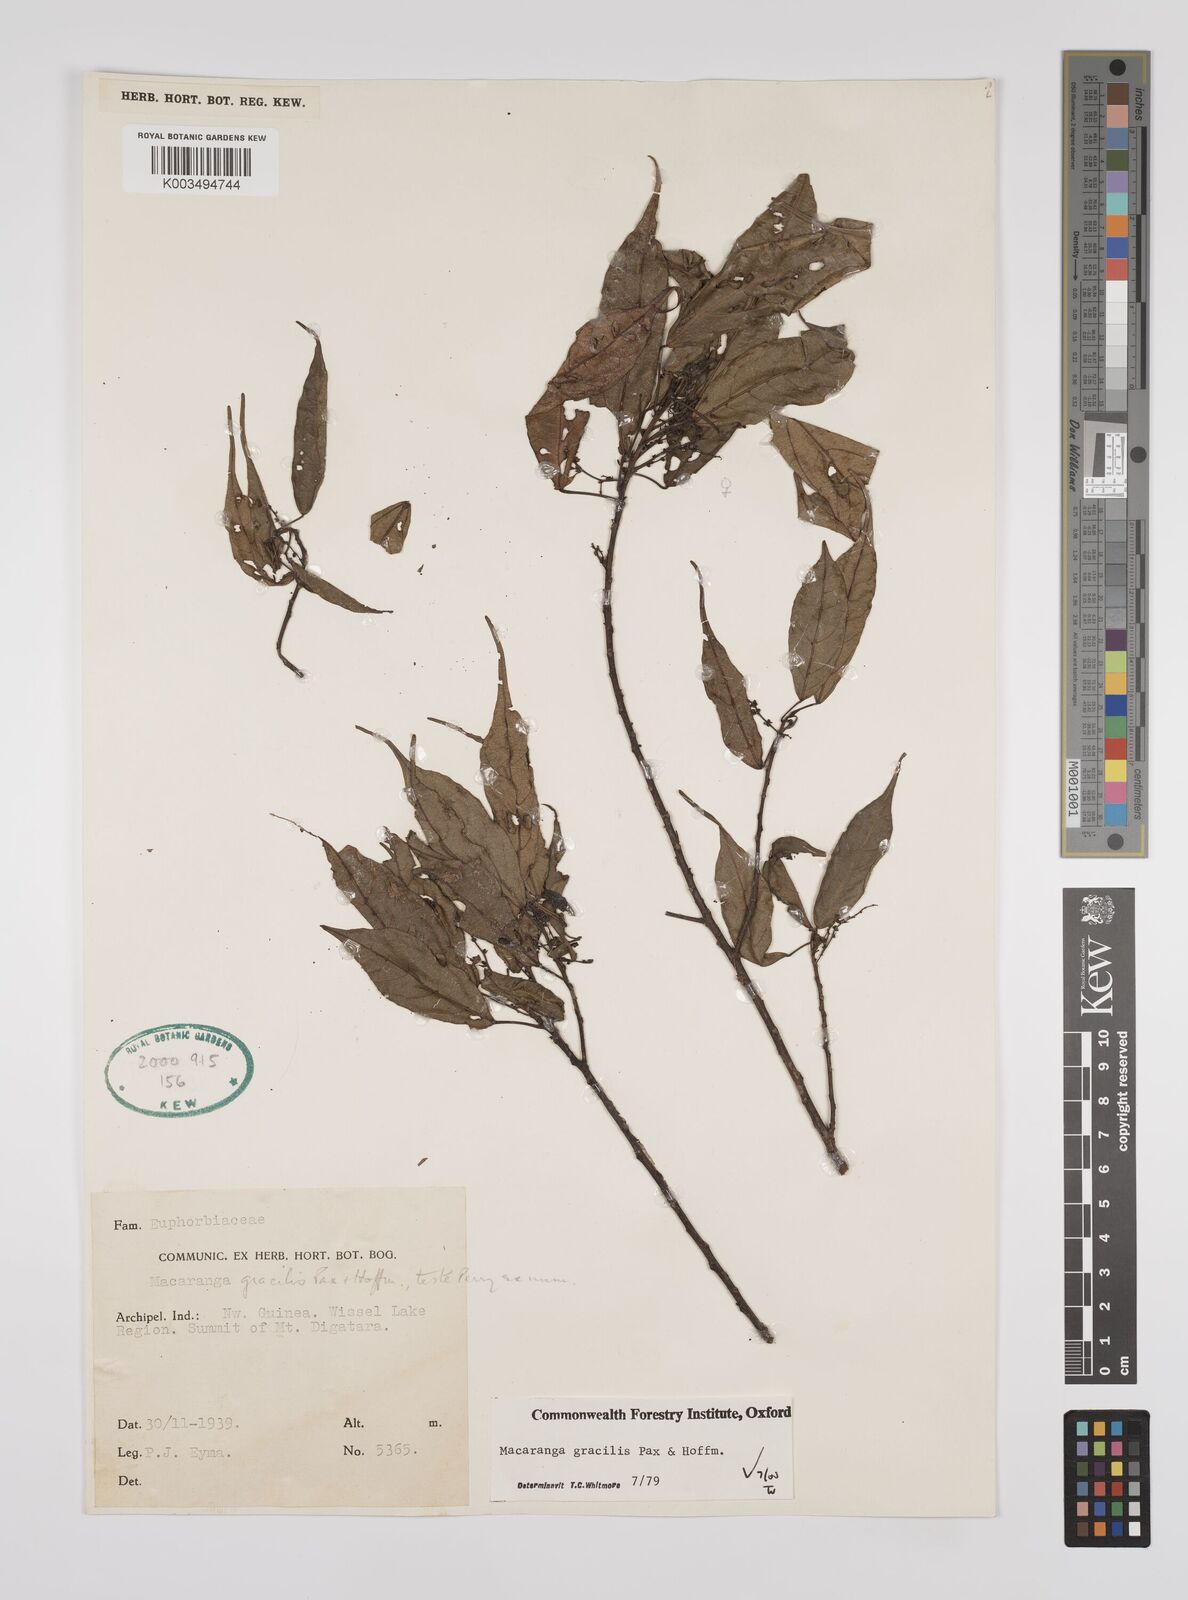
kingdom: Plantae
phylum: Tracheophyta
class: Magnoliopsida
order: Malpighiales
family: Euphorbiaceae
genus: Macaranga
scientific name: Macaranga gracilis
